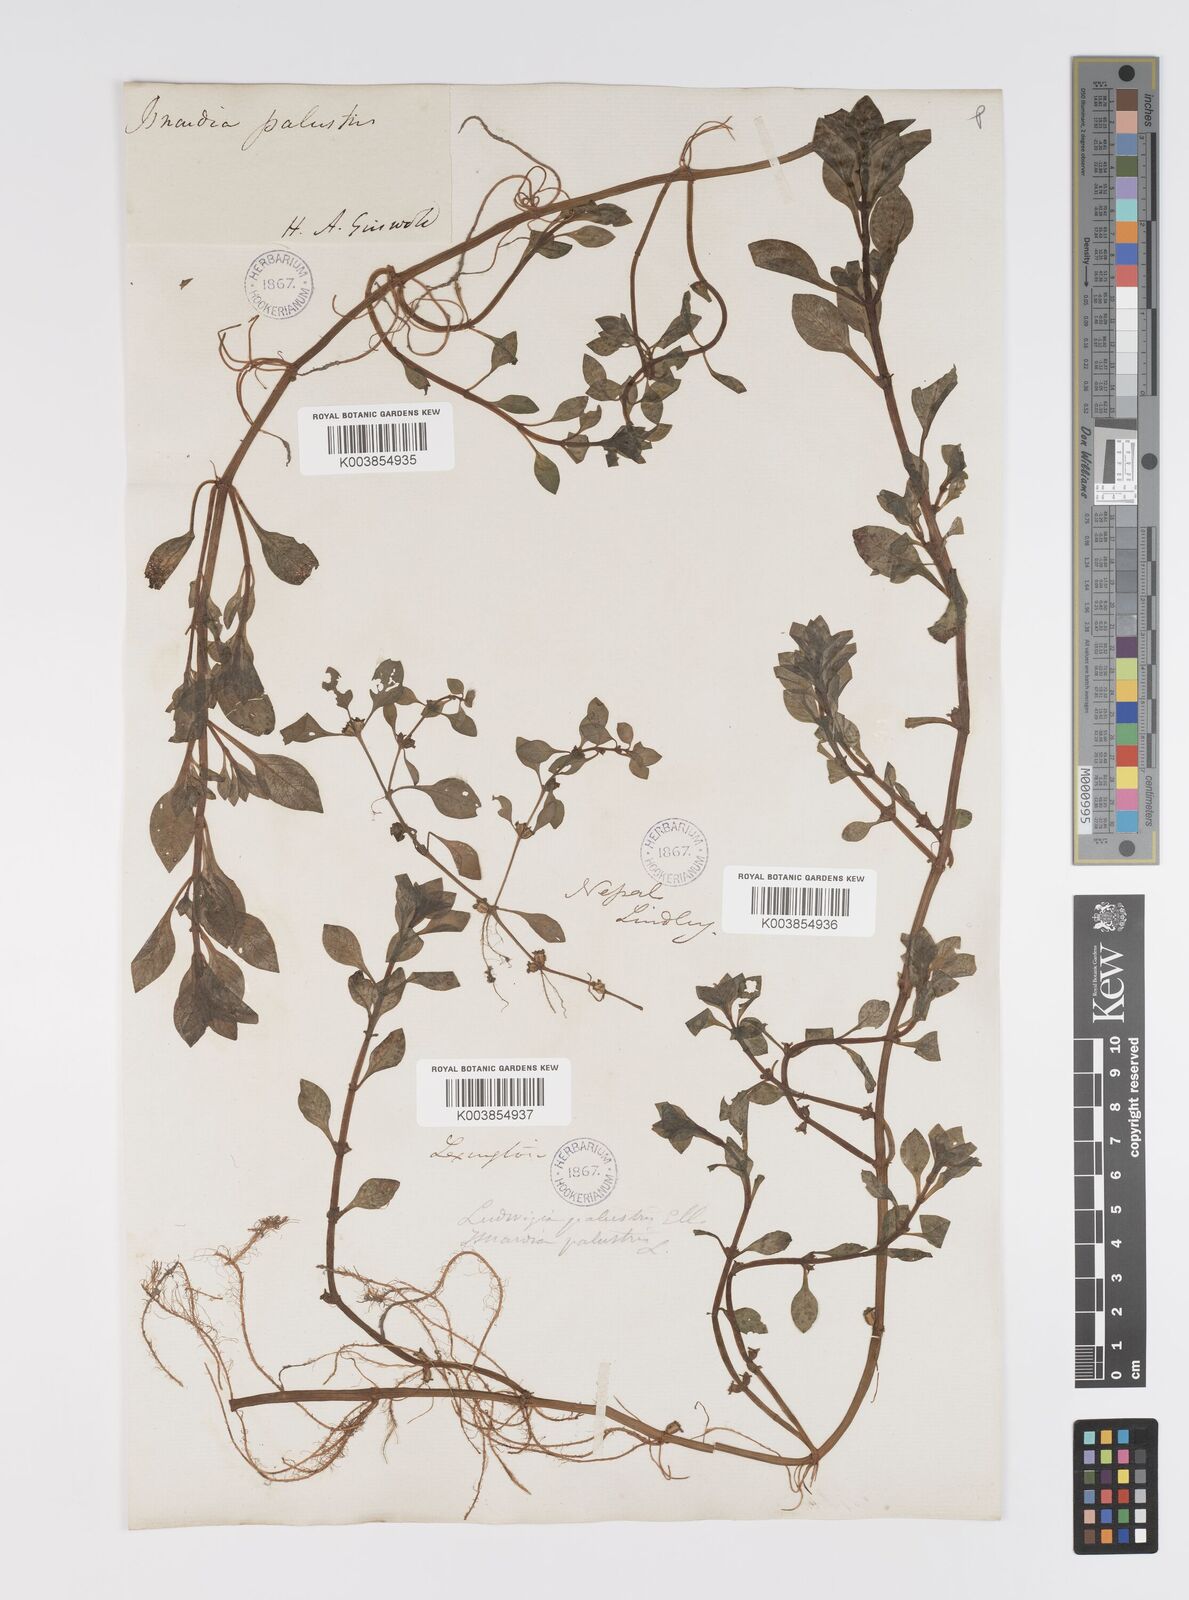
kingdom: Plantae
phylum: Tracheophyta
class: Magnoliopsida
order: Myrtales
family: Onagraceae
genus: Ludwigia
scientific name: Ludwigia palustris
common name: Hampshire-purslane
